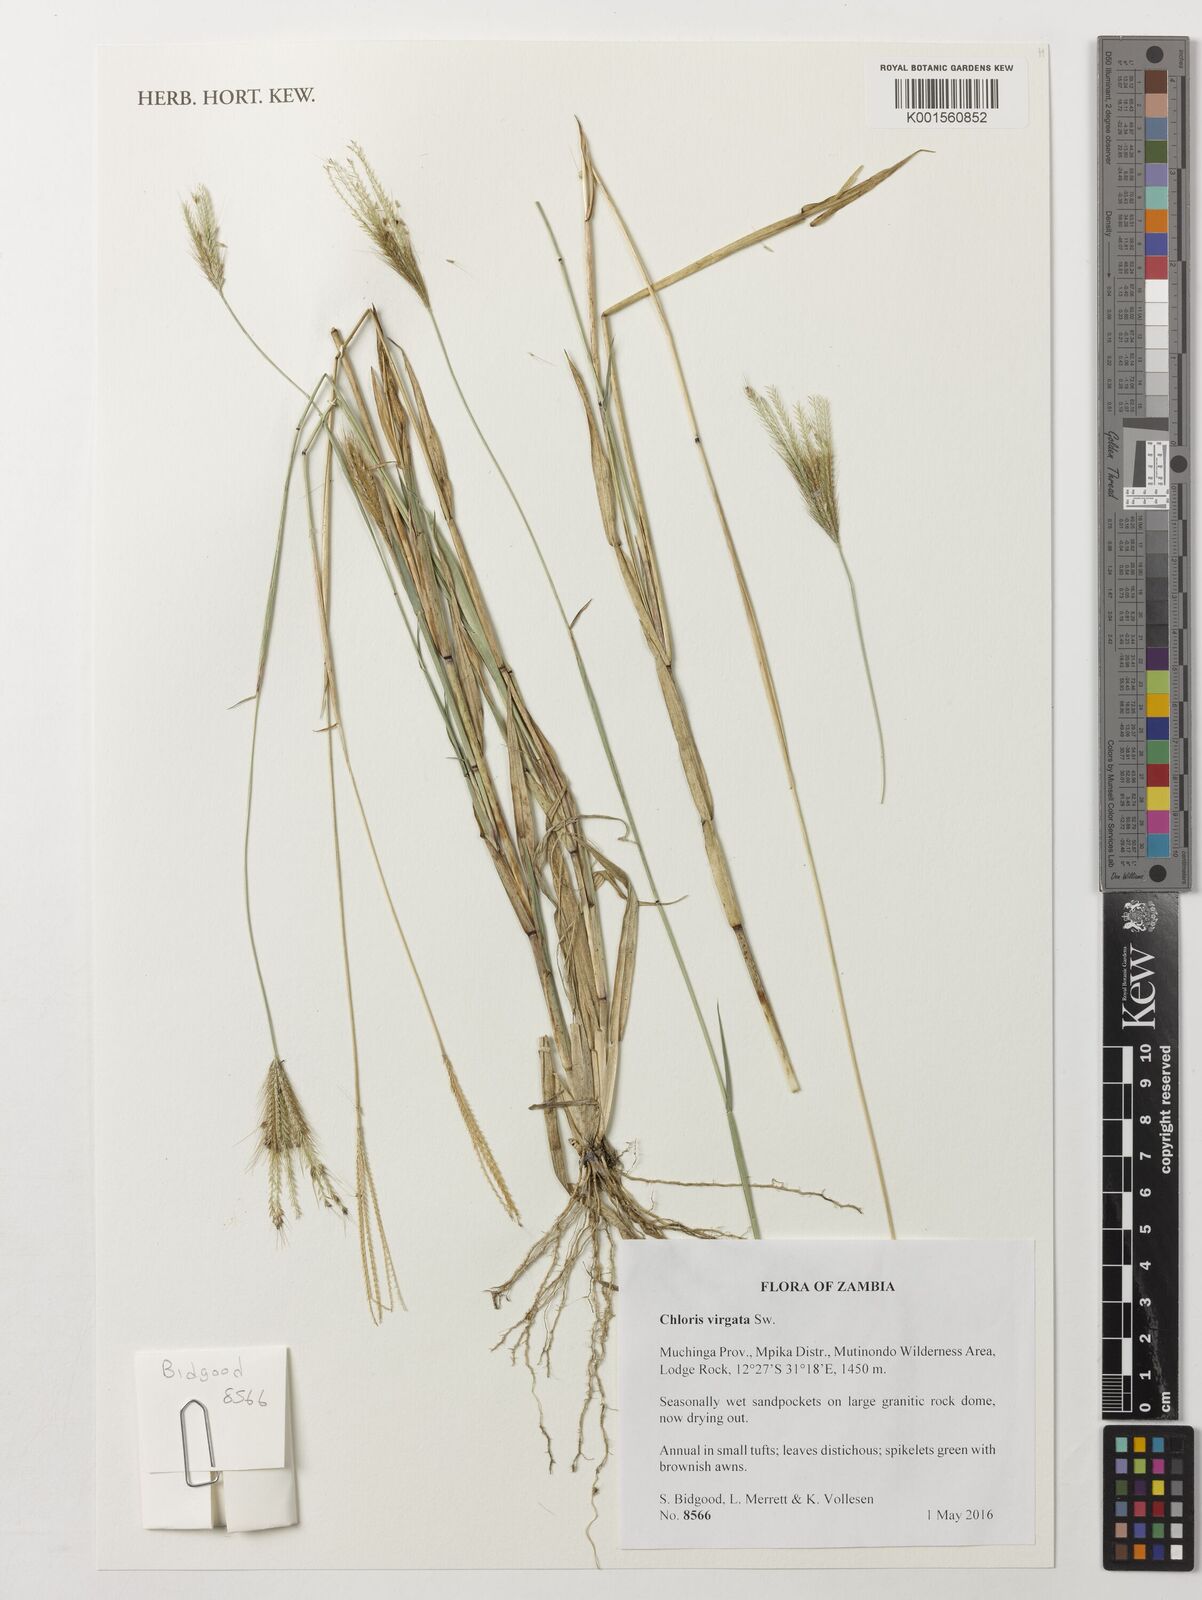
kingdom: Plantae
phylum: Tracheophyta
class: Liliopsida
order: Poales
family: Poaceae
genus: Chloris
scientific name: Chloris virgata
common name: Feathery rhodes-grass
